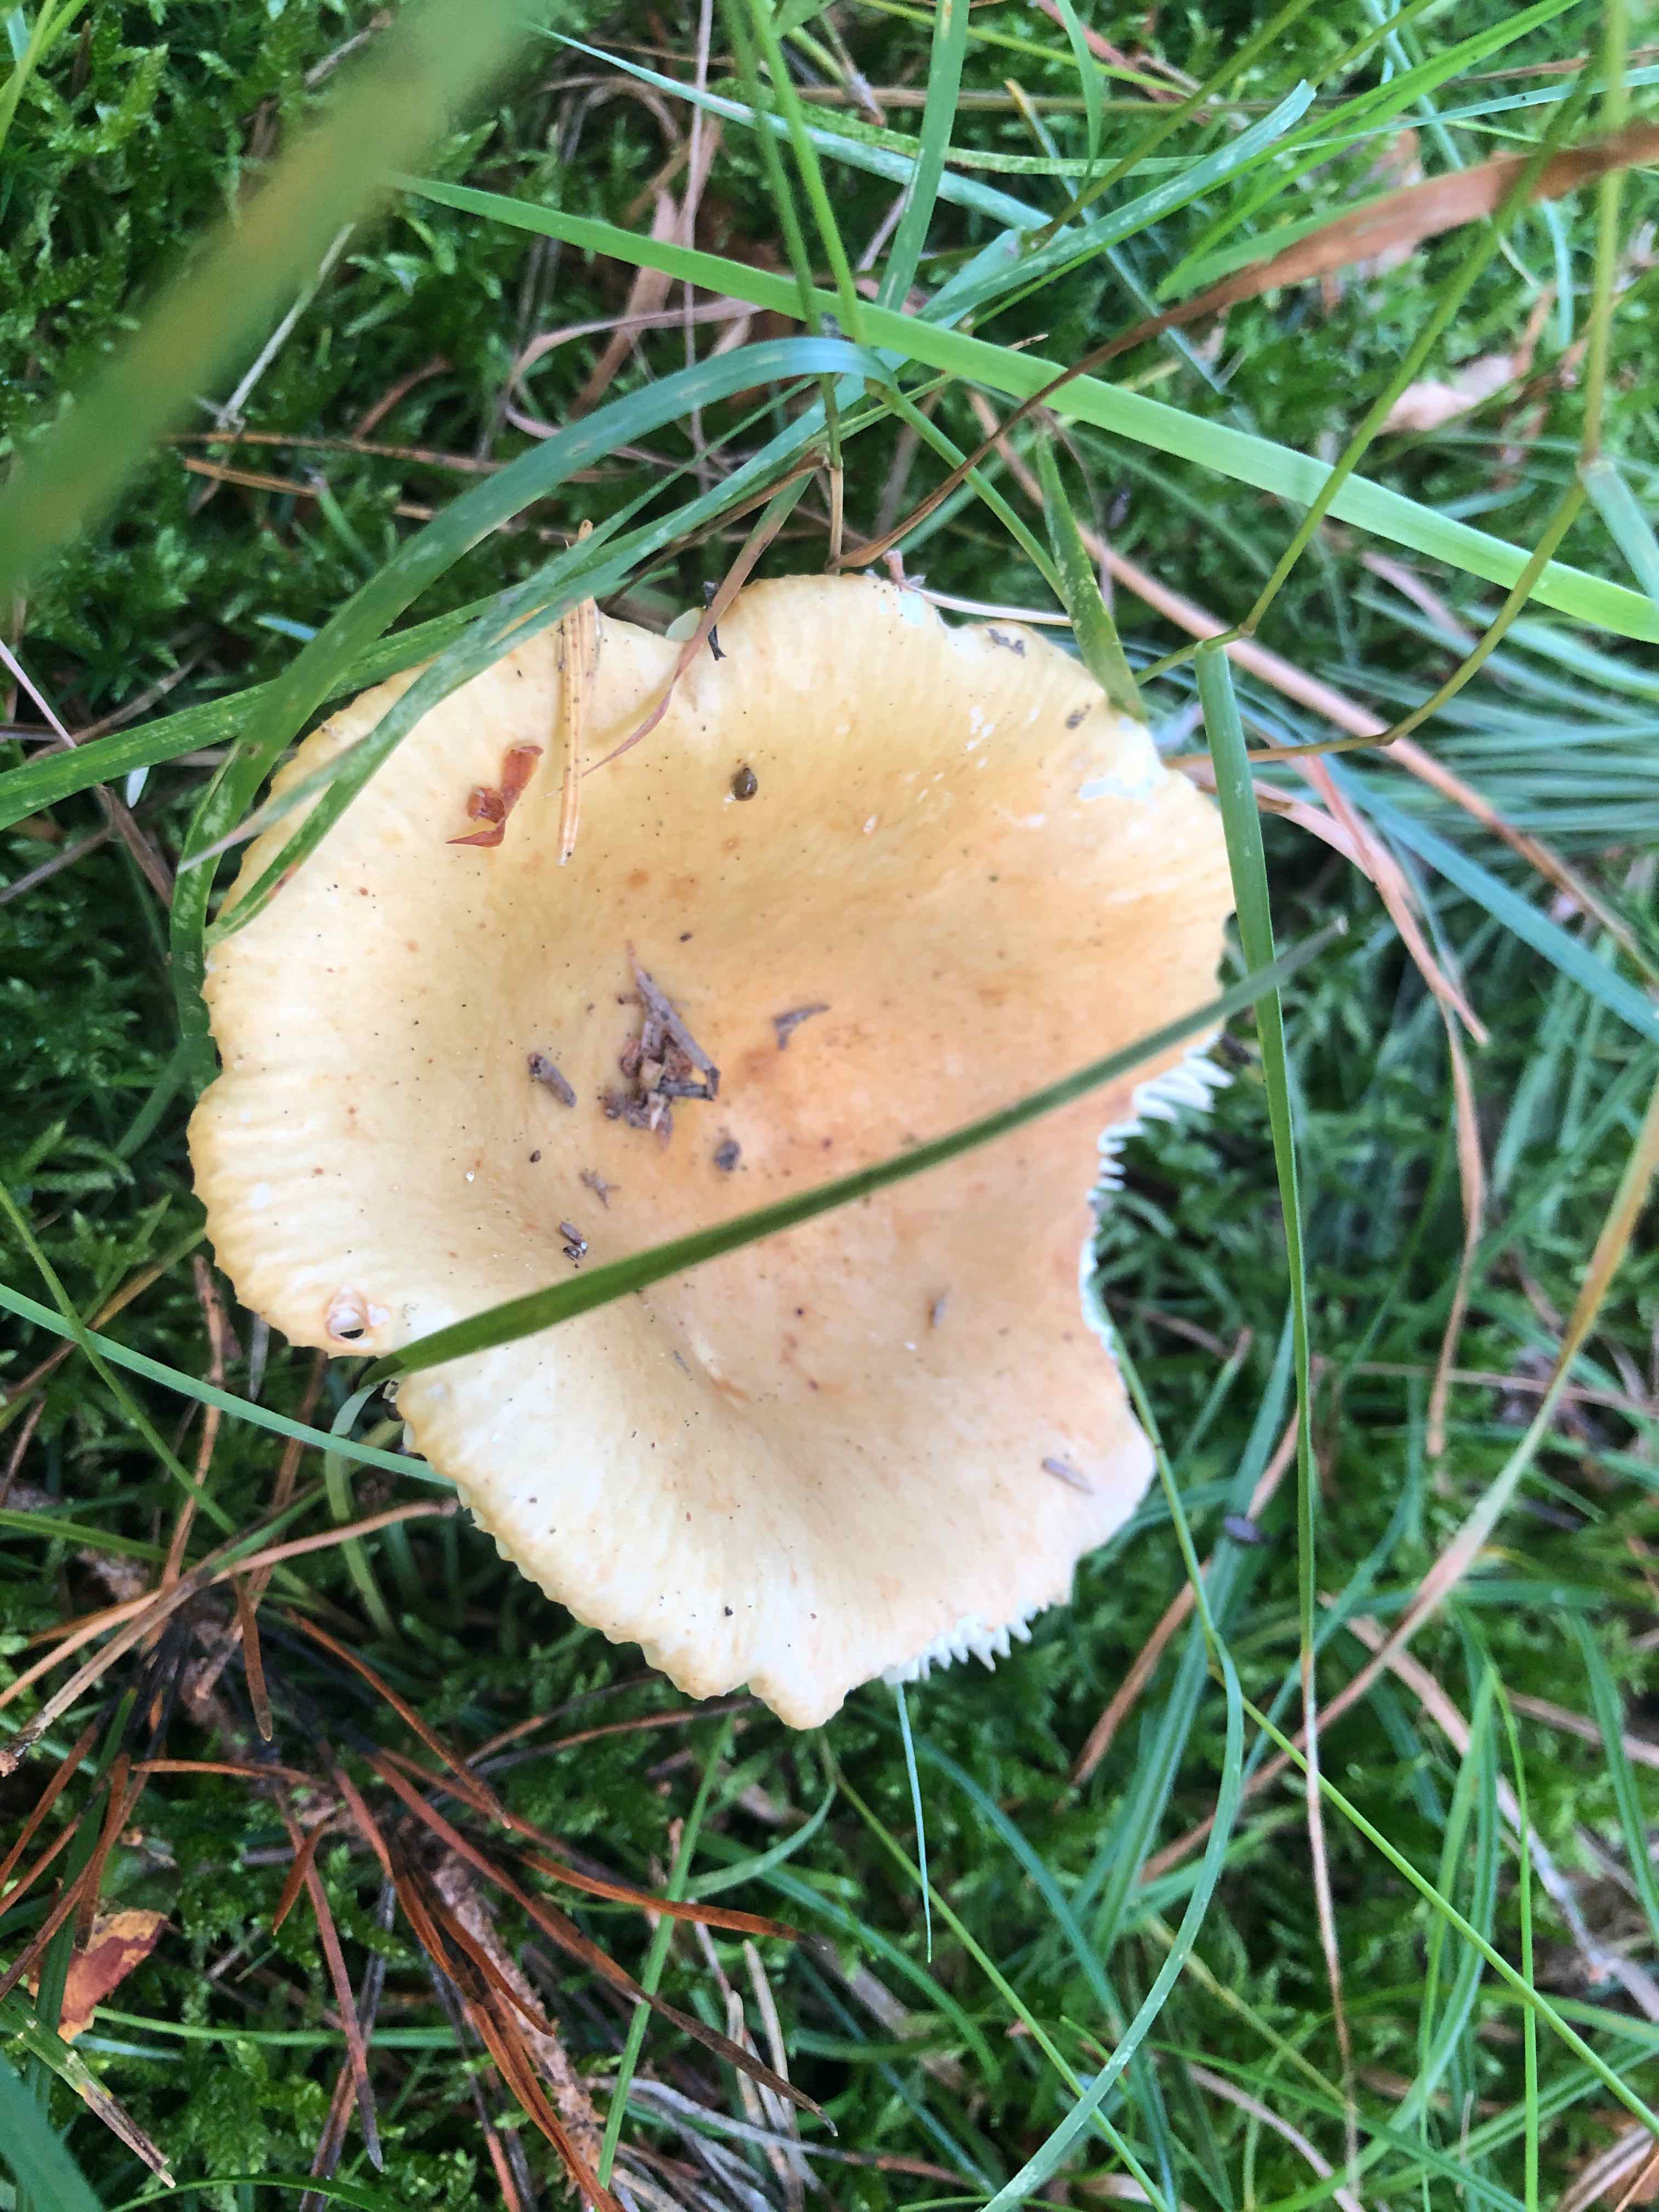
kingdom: Fungi
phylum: Basidiomycota
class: Agaricomycetes
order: Russulales
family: Russulaceae
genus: Russula
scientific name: Russula ochroleuca
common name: okkergul skørhat
